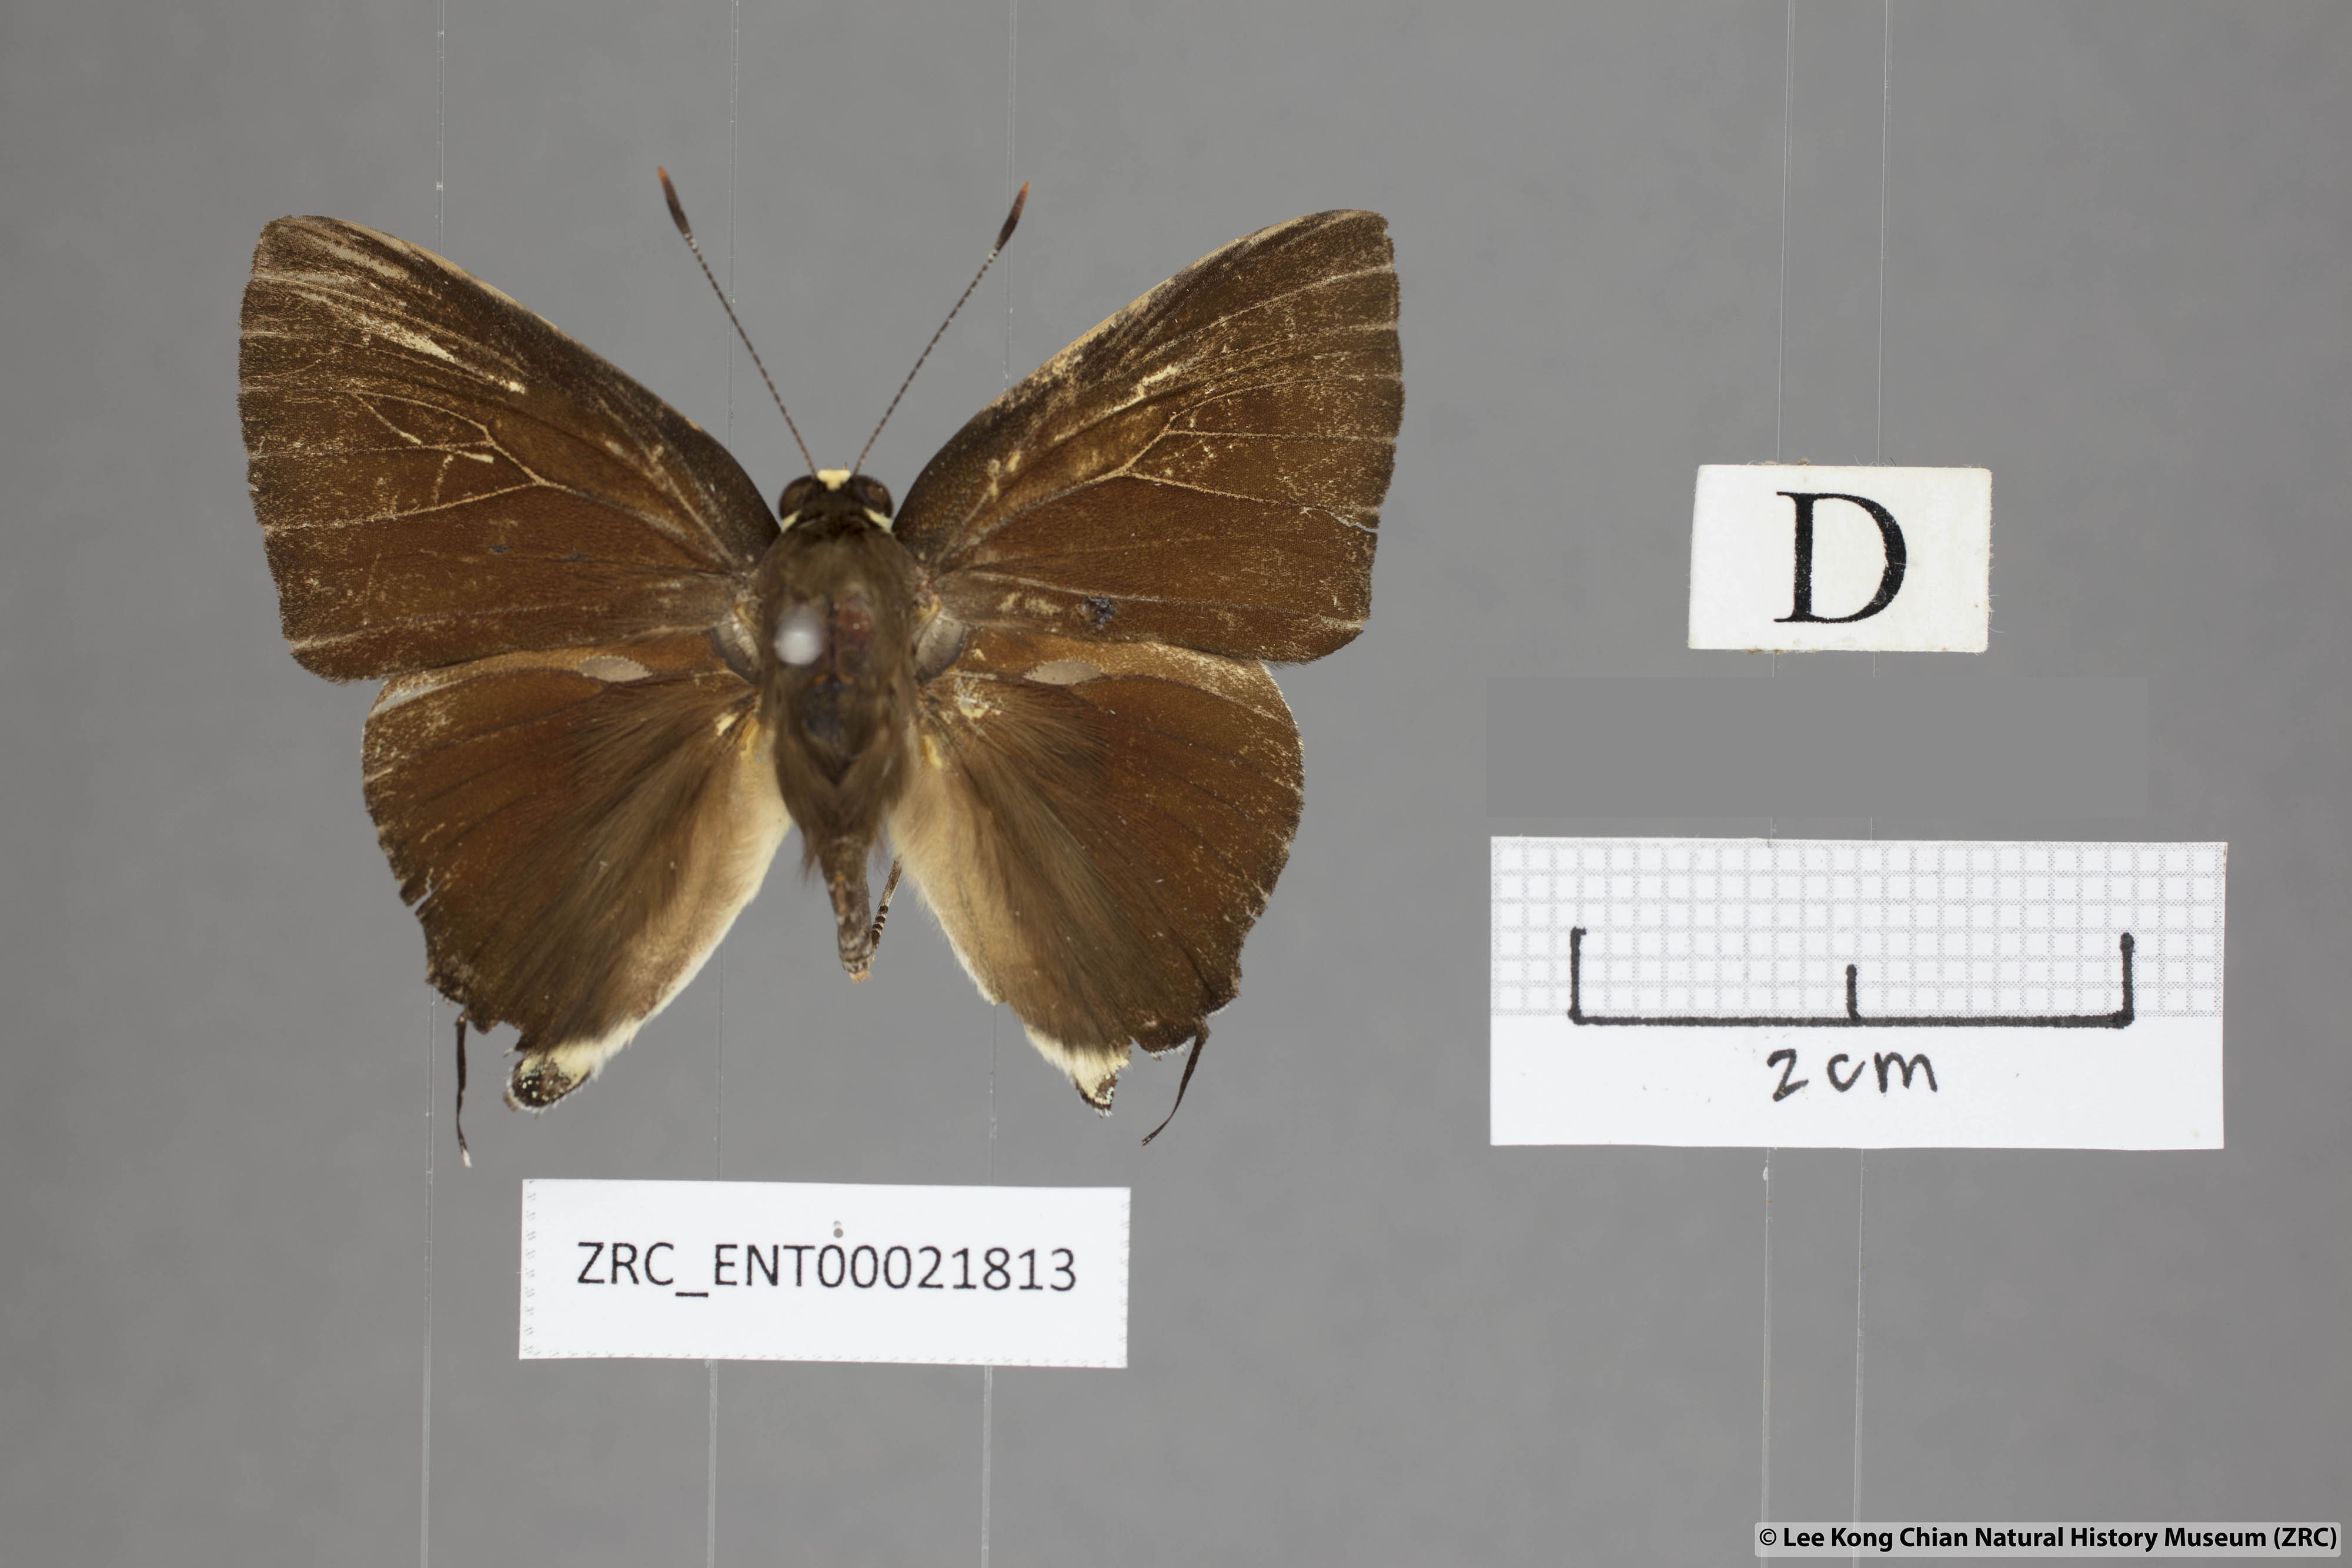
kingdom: Animalia
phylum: Arthropoda
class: Insecta
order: Lepidoptera
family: Lycaenidae
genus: Rapala
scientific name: Rapala domitia
